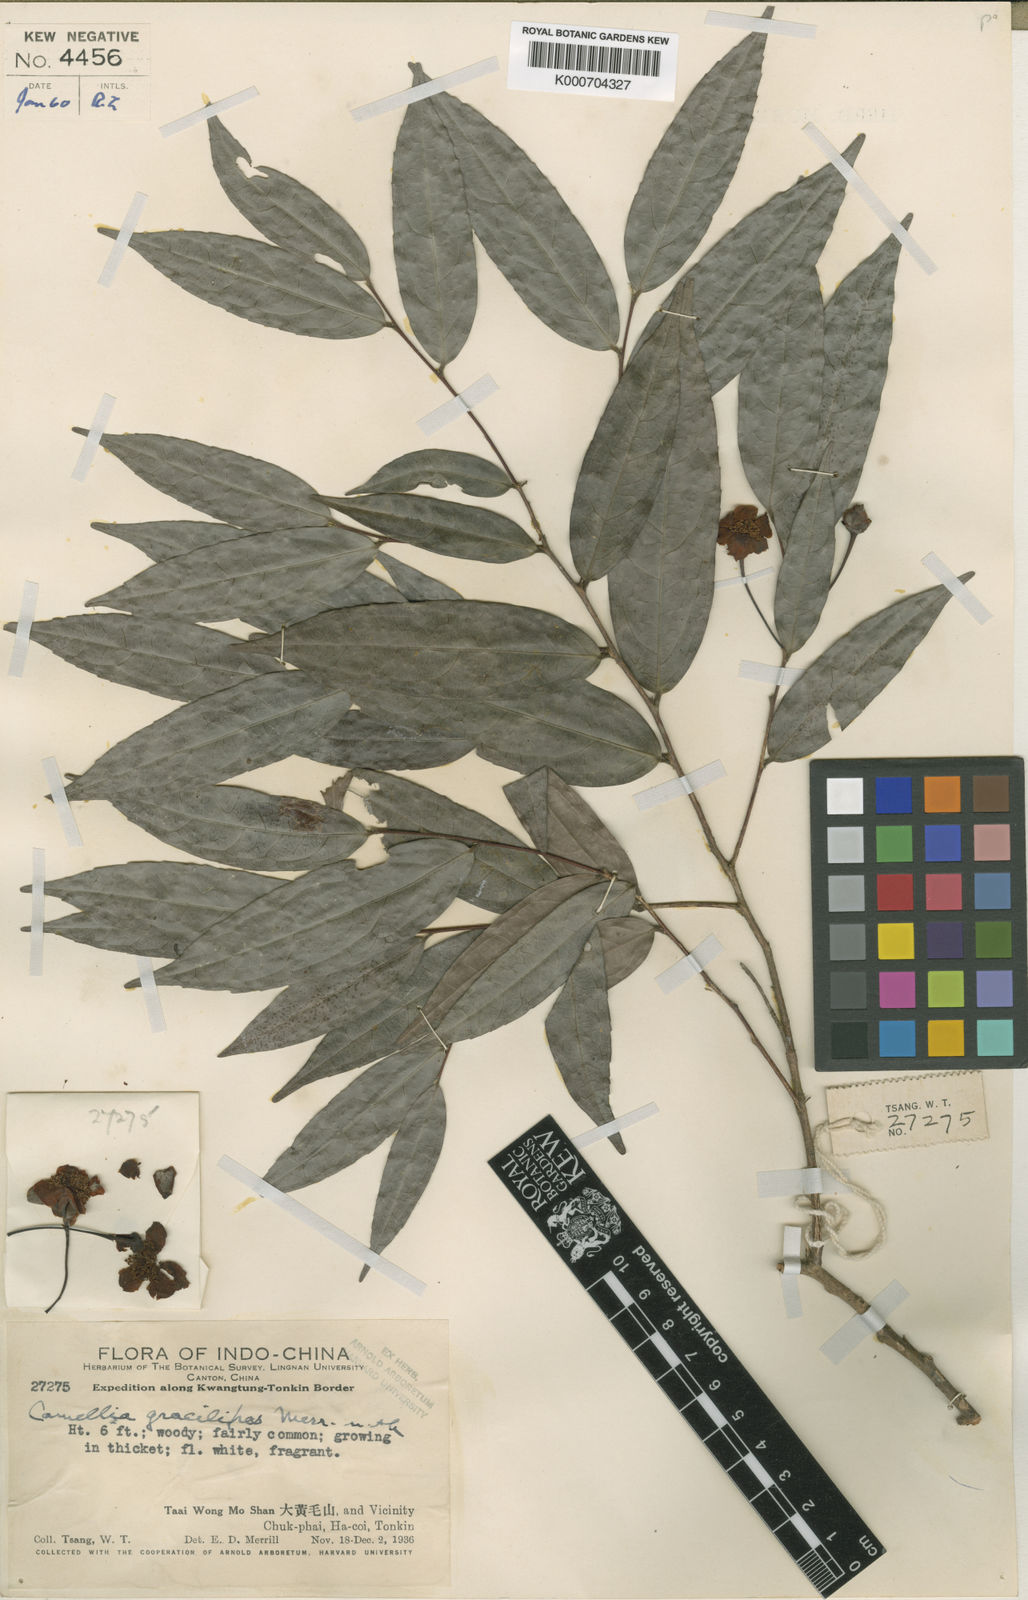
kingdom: Plantae
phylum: Tracheophyta
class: Magnoliopsida
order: Ericales
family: Theaceae
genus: Camellia
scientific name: Camellia gracilipes
